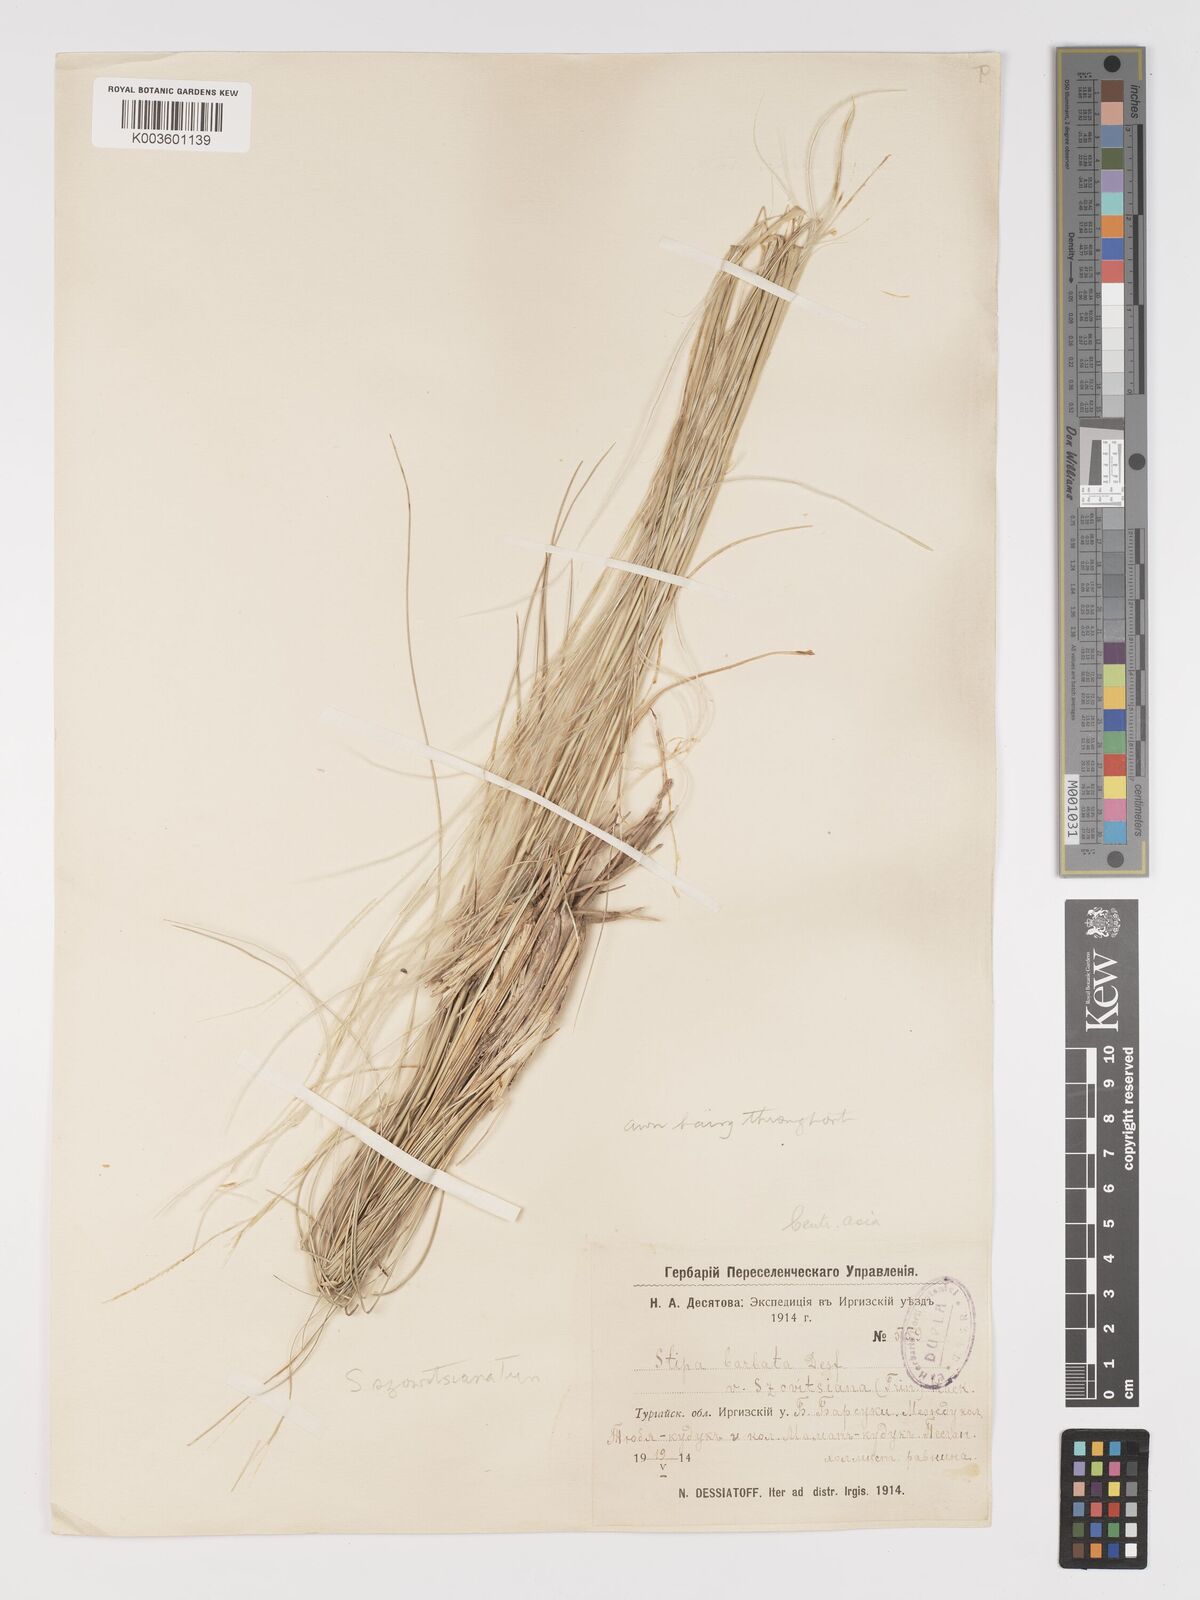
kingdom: Plantae
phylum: Tracheophyta
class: Liliopsida
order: Poales
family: Poaceae
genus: Stipa
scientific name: Stipa arabica
